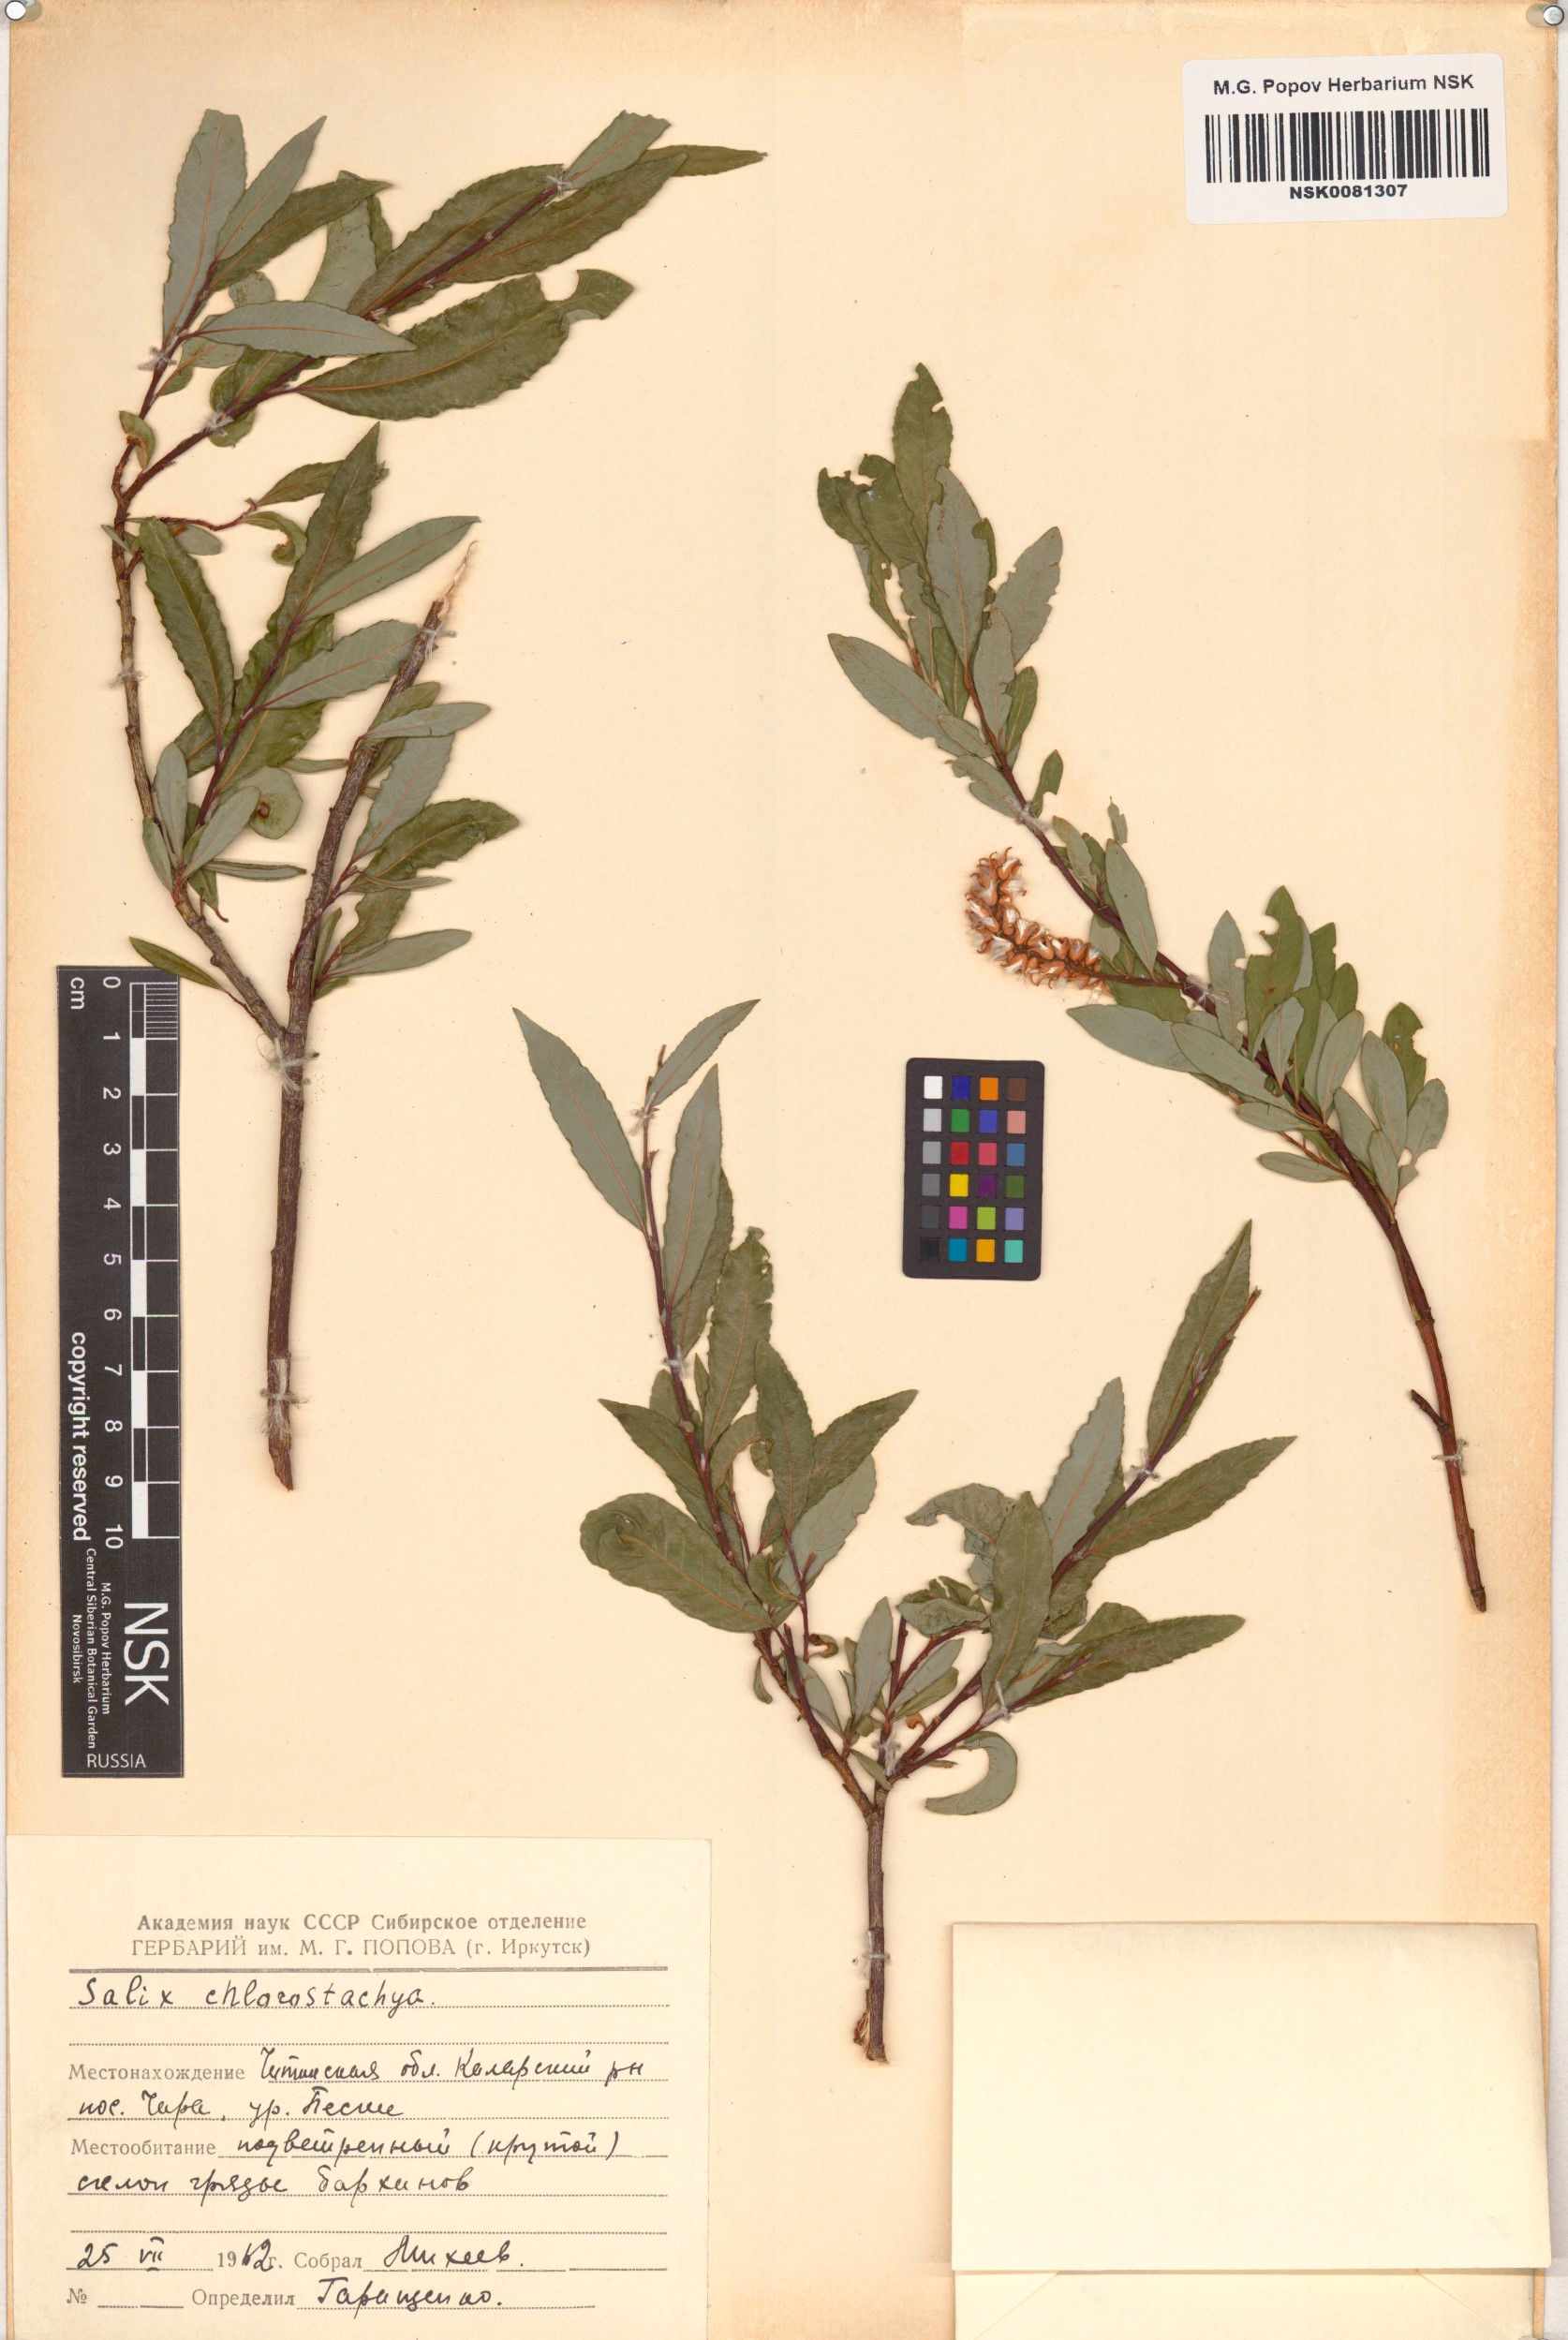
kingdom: Plantae
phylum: Tracheophyta
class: Magnoliopsida
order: Malpighiales
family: Salicaceae
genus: Salix
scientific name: Salix rhamnifolia
